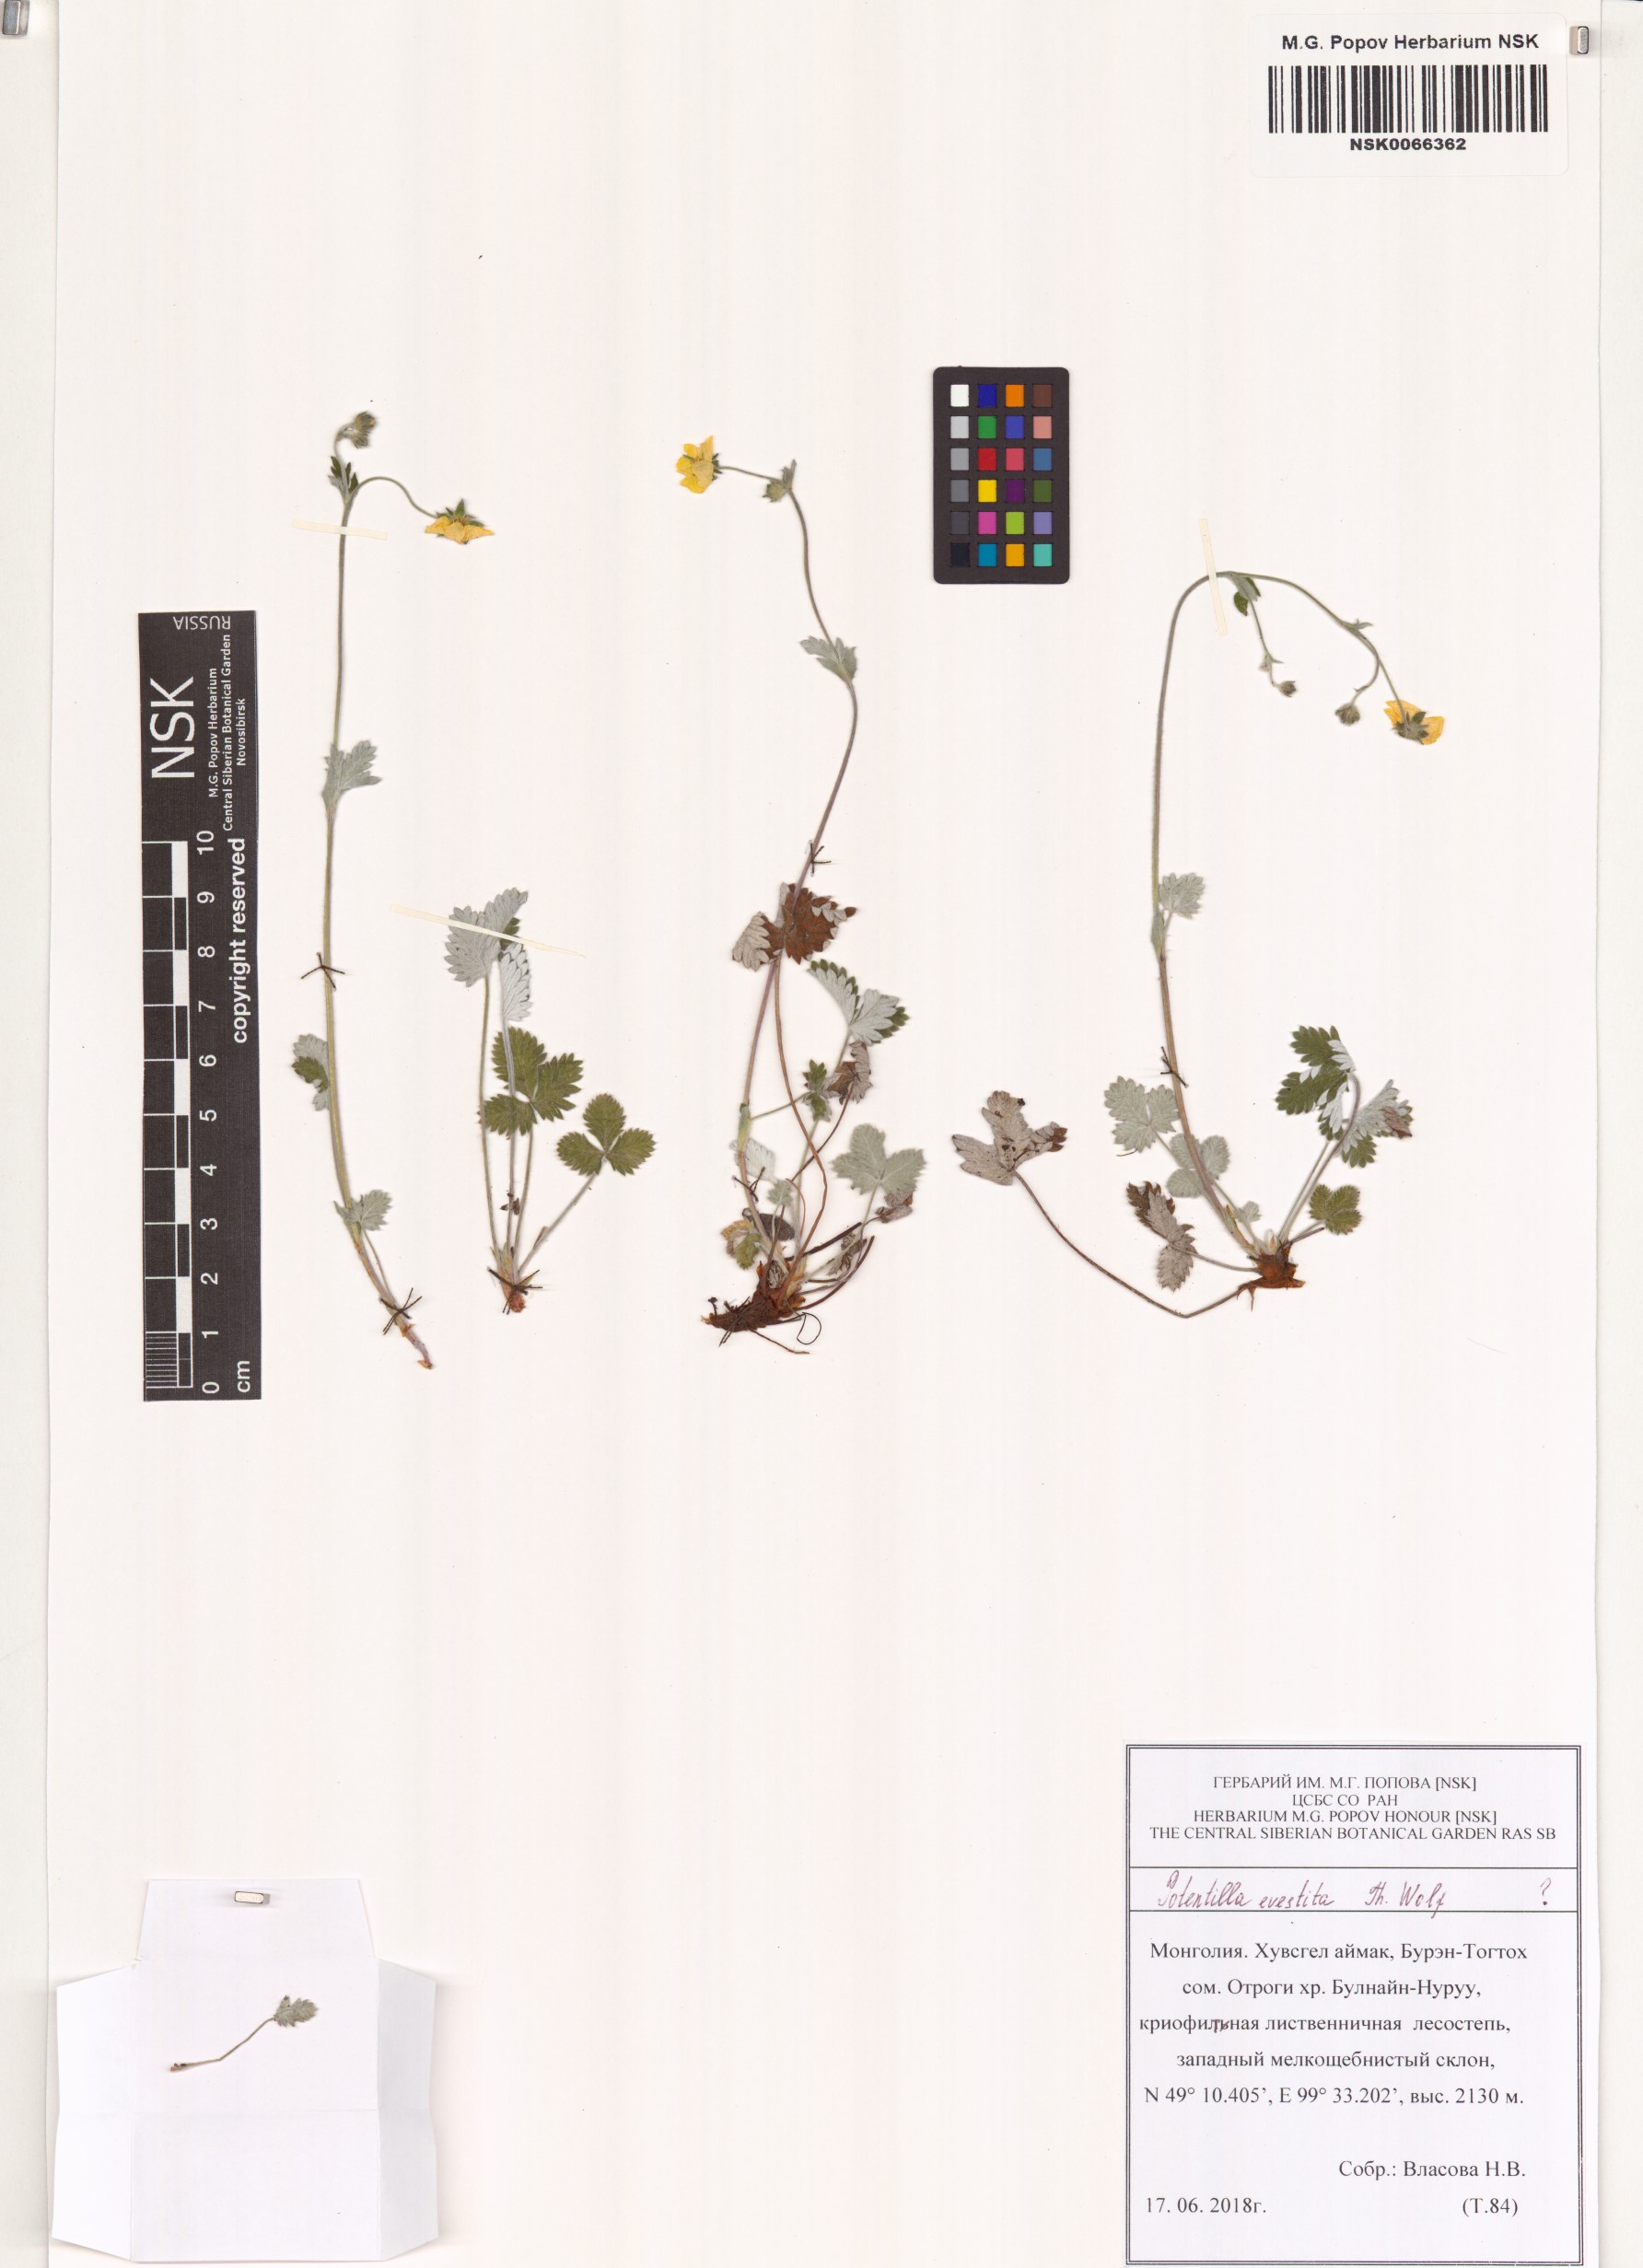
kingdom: Plantae
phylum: Tracheophyta
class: Magnoliopsida
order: Rosales
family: Rosaceae
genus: Potentilla
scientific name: Potentilla evestita
